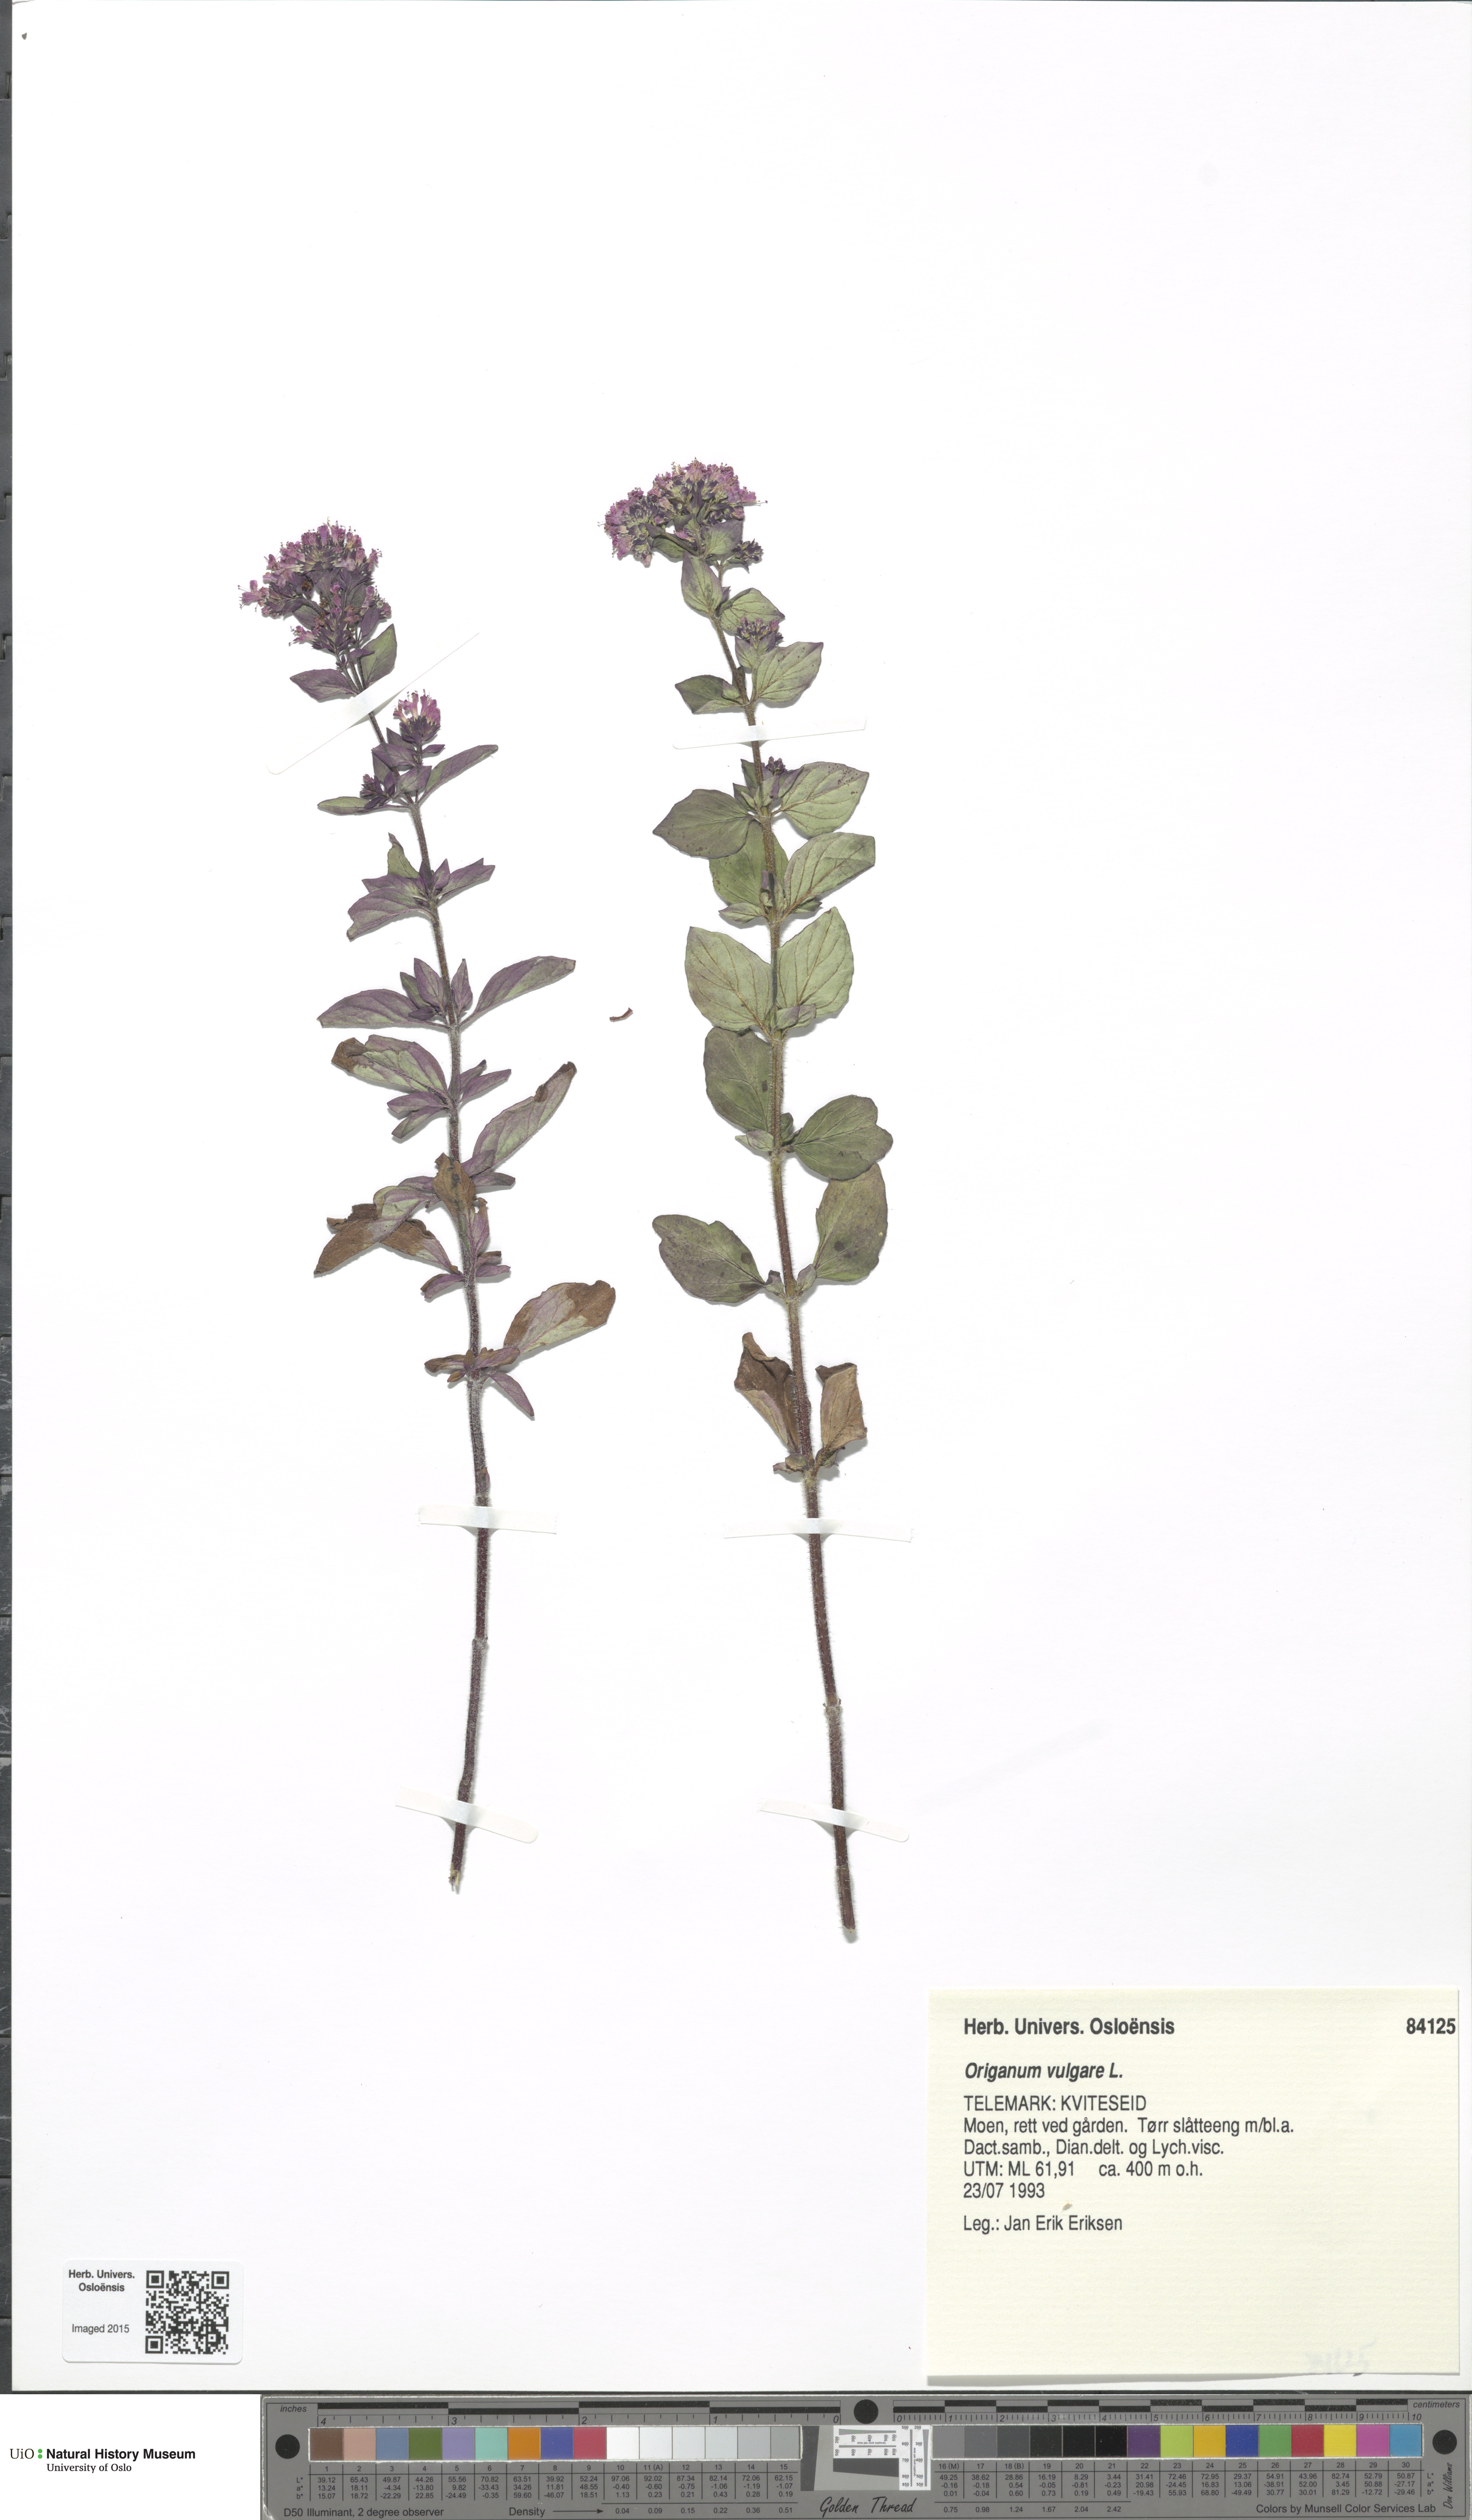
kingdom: Plantae
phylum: Tracheophyta
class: Magnoliopsida
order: Lamiales
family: Lamiaceae
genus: Origanum
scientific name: Origanum vulgare
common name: Wild marjoram
